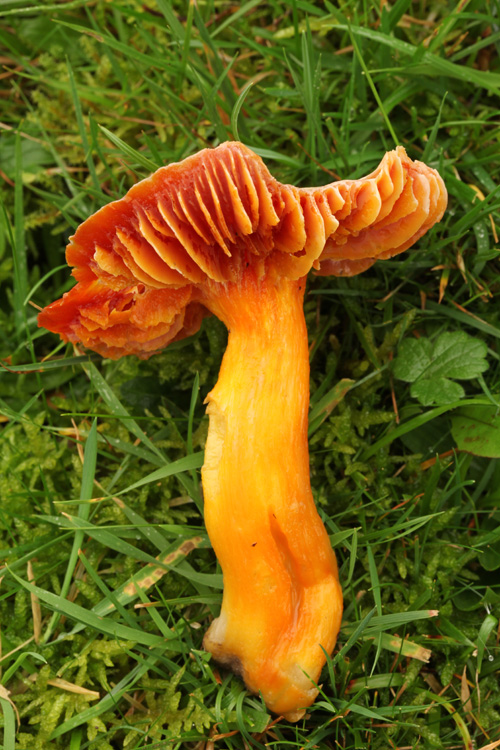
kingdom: Fungi
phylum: Basidiomycota
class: Agaricomycetes
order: Agaricales
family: Hygrophoraceae
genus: Hygrocybe
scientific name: Hygrocybe punicea
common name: skarlagen-vokshat
